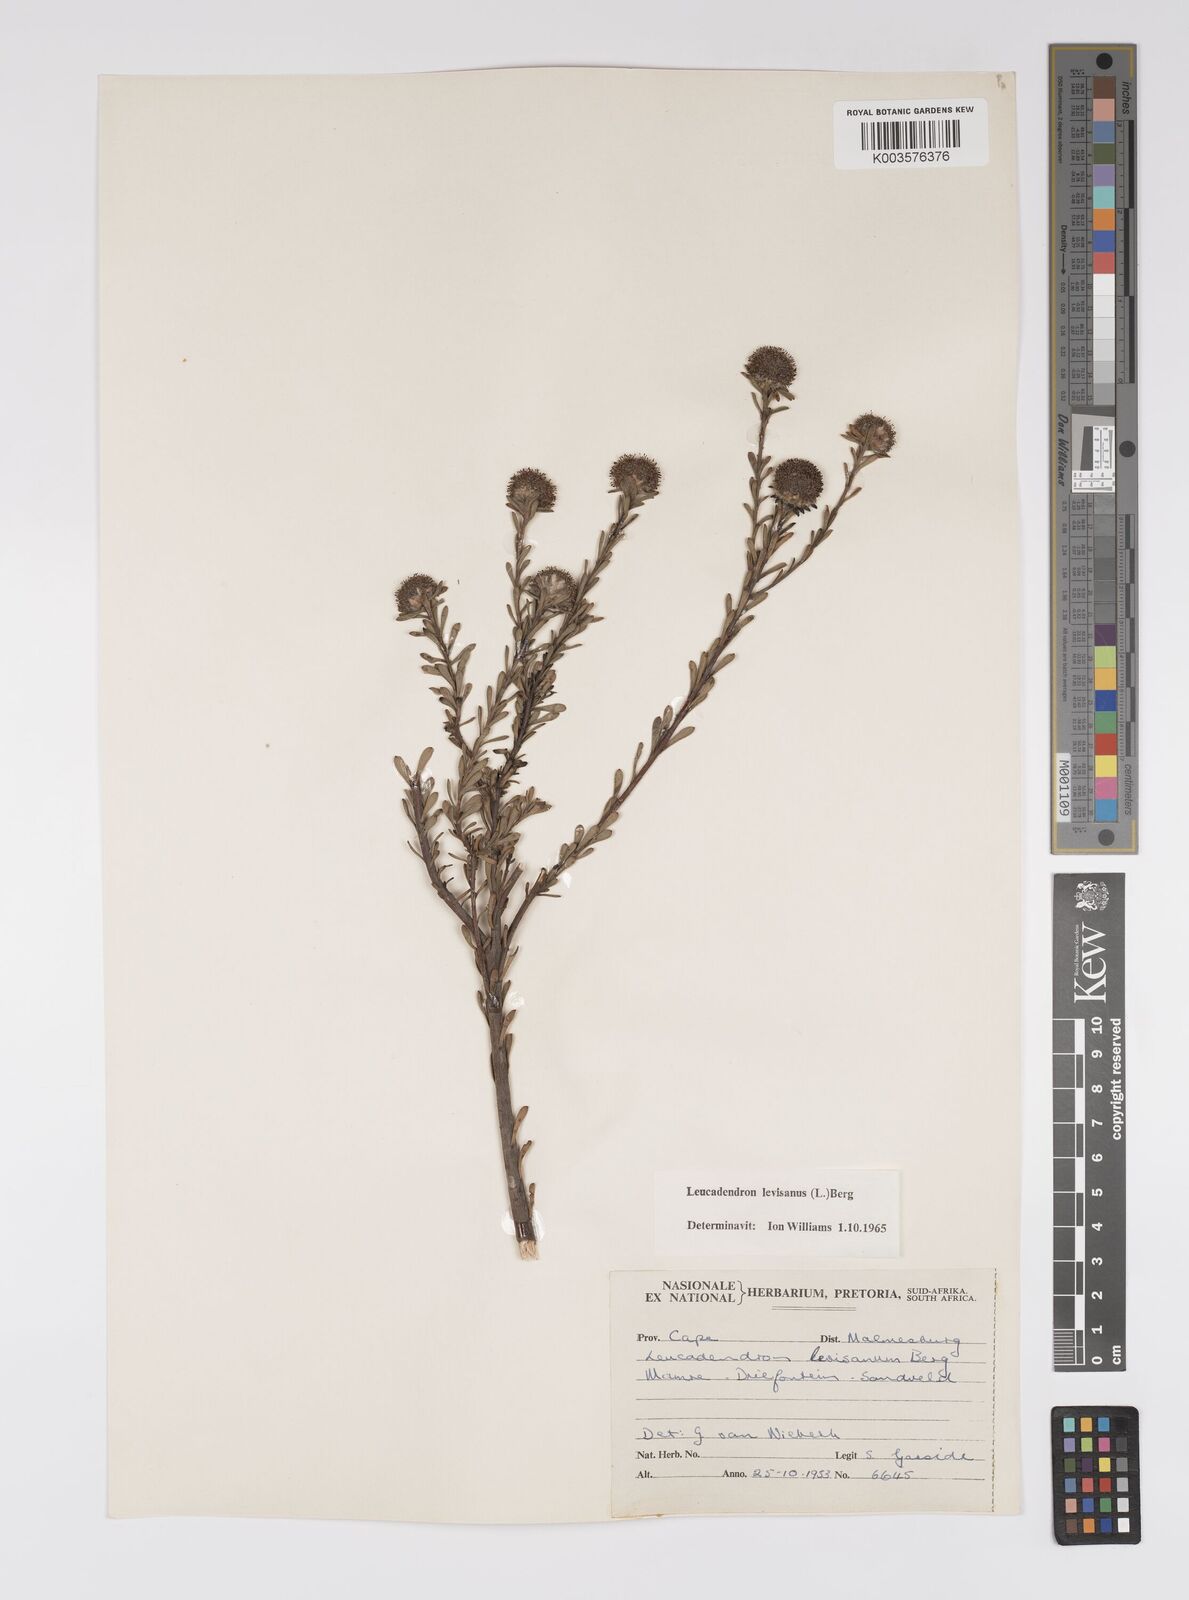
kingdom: Plantae
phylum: Tracheophyta
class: Magnoliopsida
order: Proteales
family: Proteaceae
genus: Leucadendron
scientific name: Leucadendron levisanus
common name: Cape flats conebush
